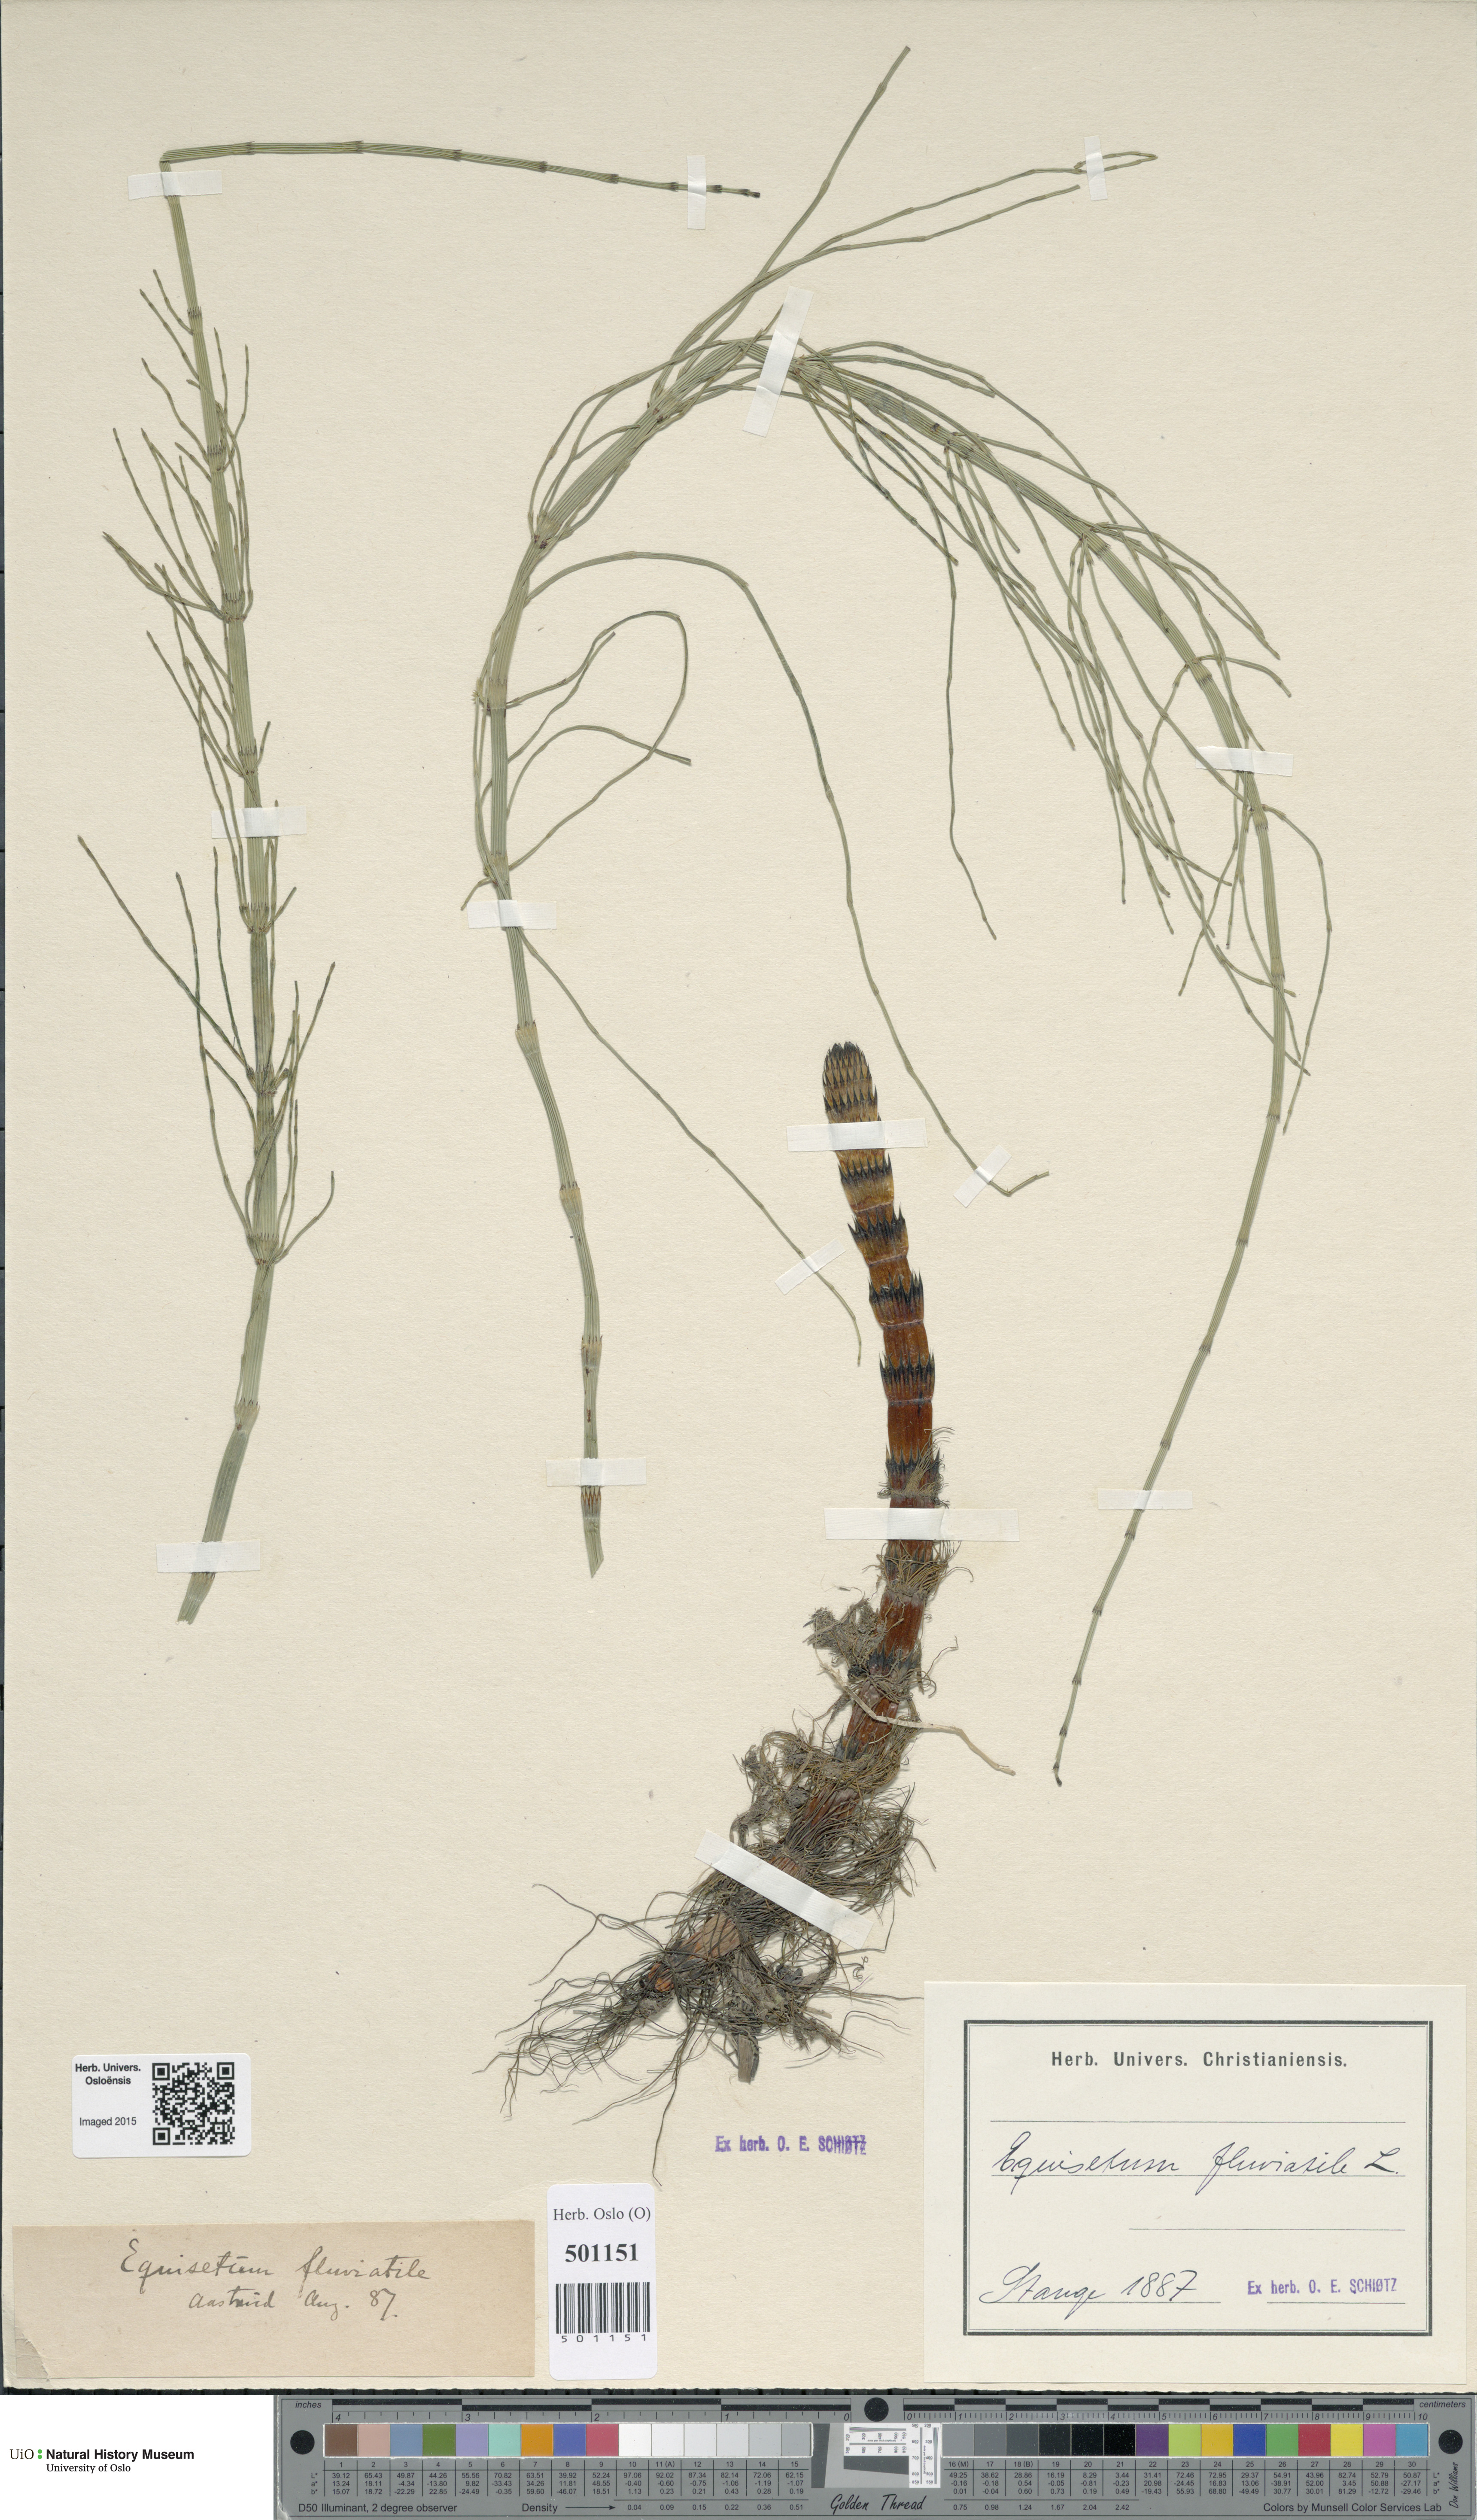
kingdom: Plantae
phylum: Tracheophyta
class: Polypodiopsida
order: Equisetales
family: Equisetaceae
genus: Equisetum
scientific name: Equisetum fluviatile
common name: Water horsetail
